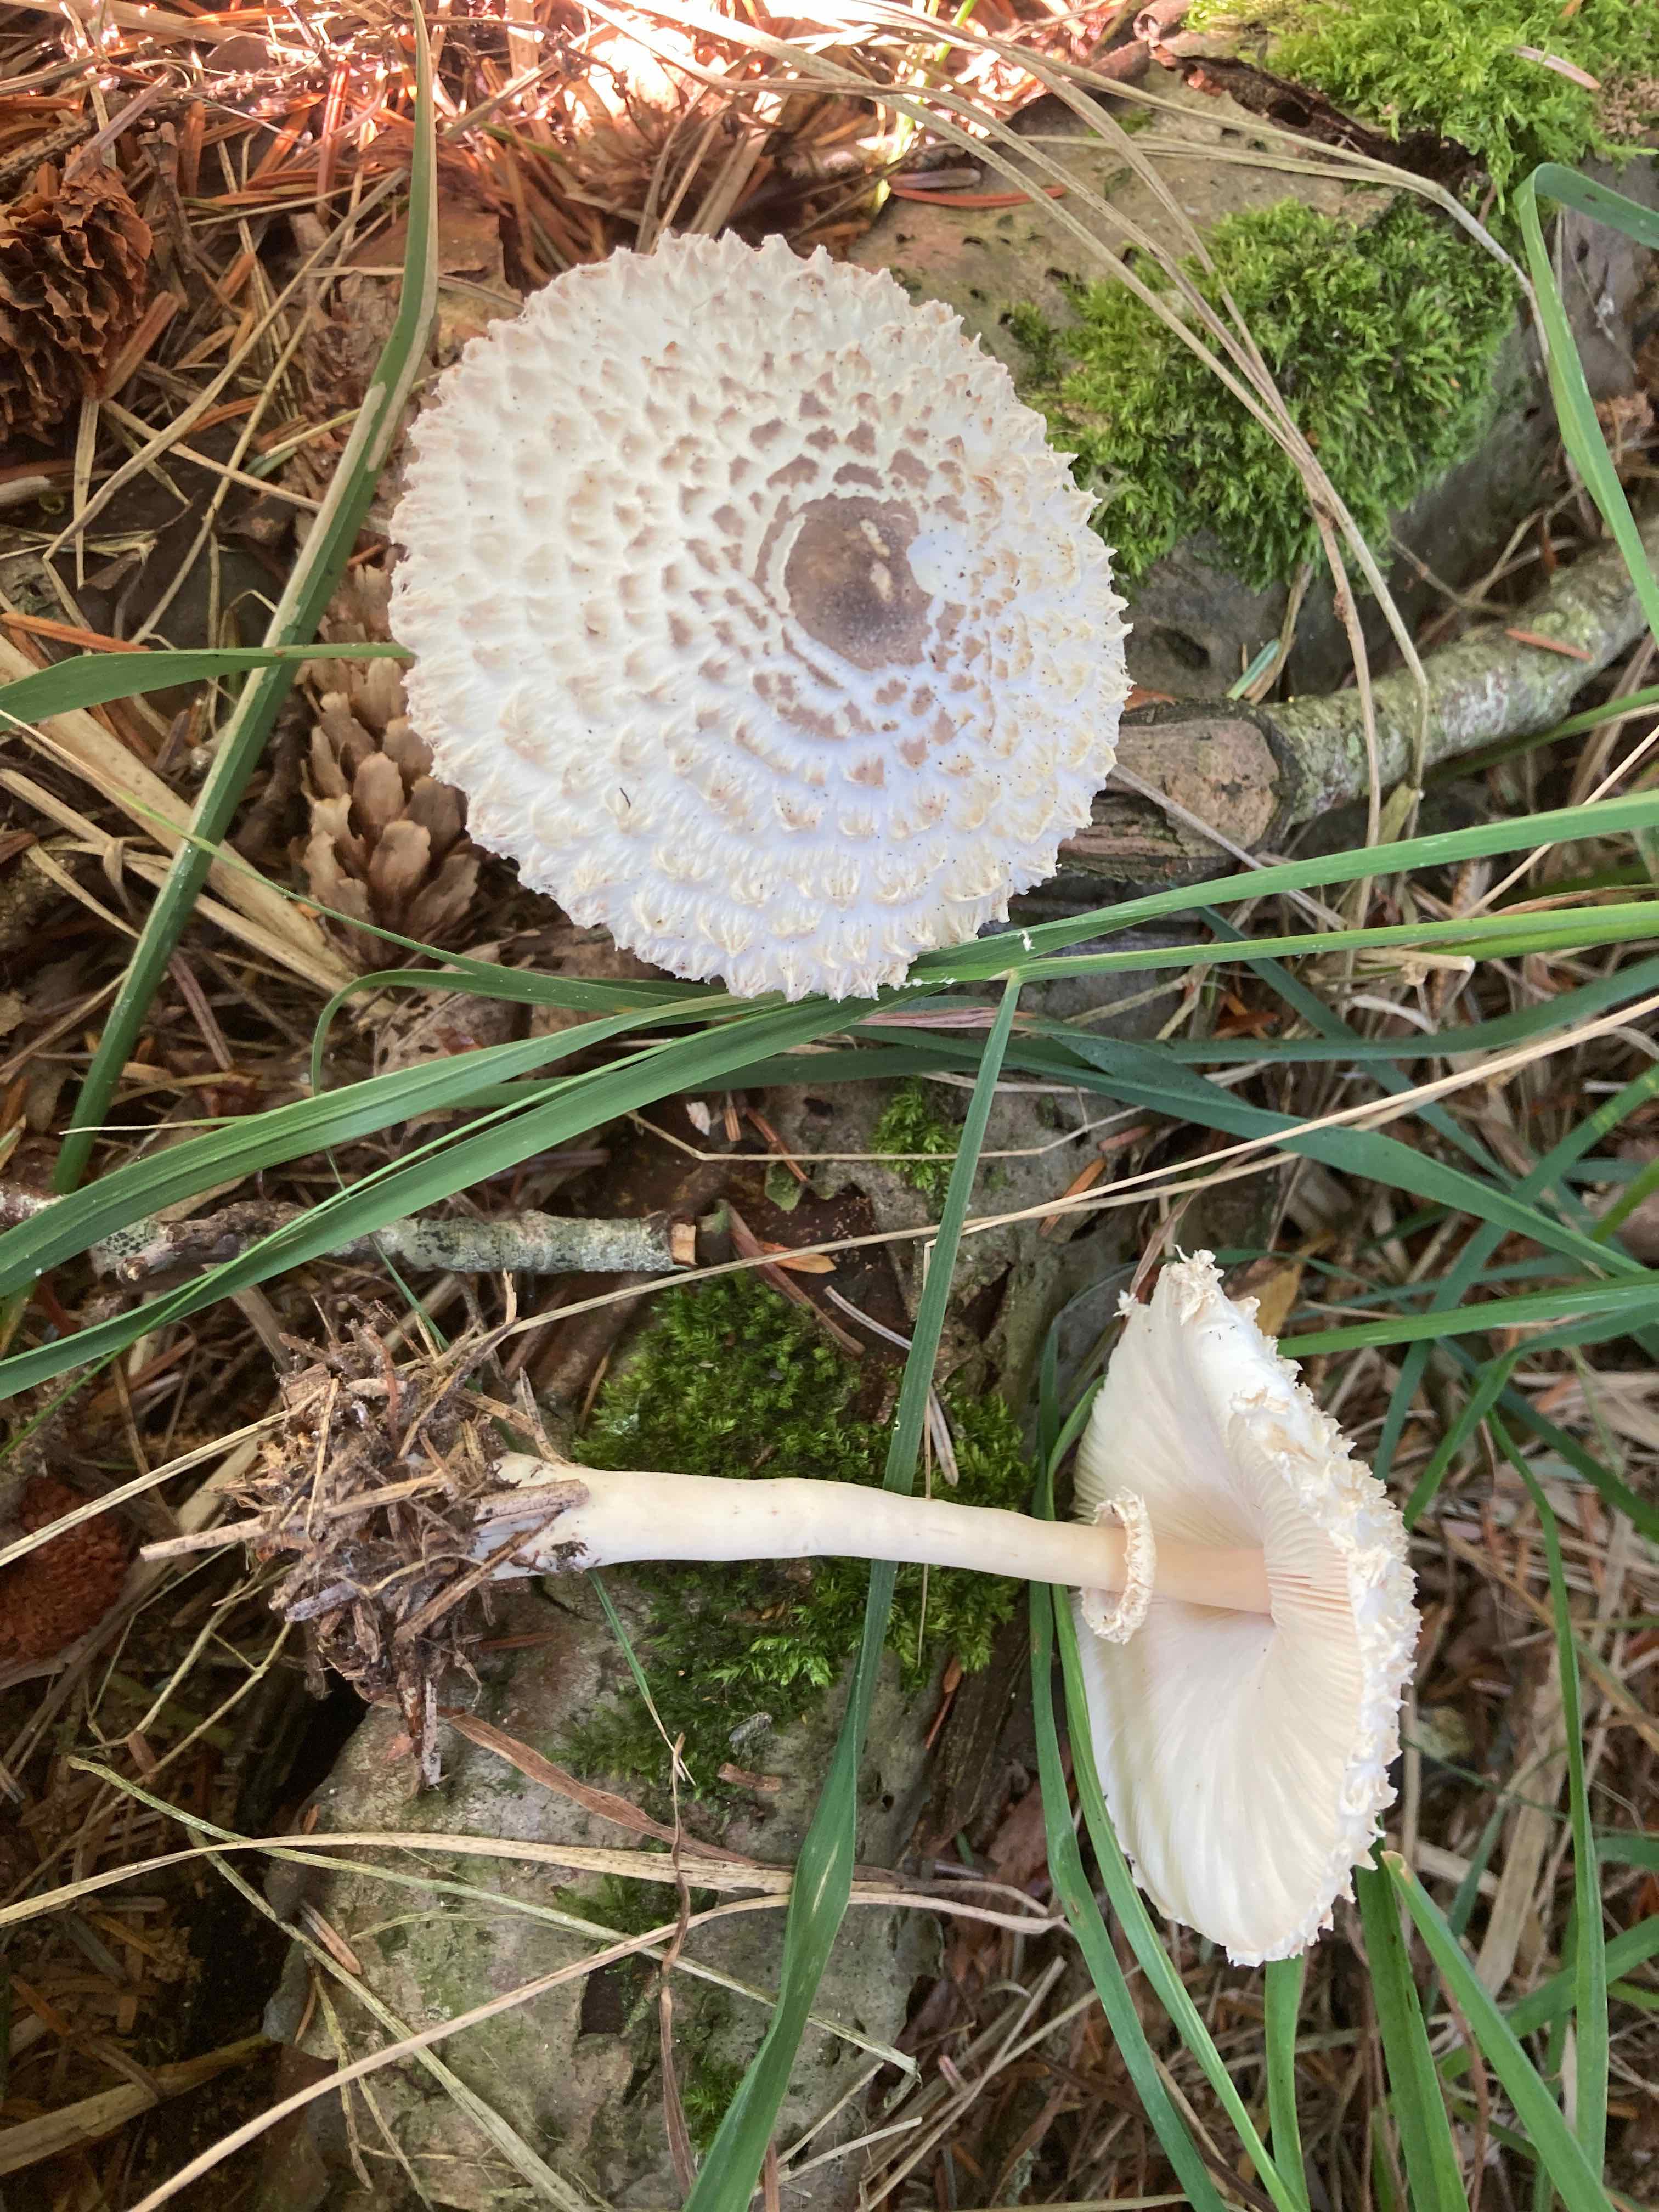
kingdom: Fungi
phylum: Basidiomycota
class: Agaricomycetes
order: Agaricales
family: Agaricaceae
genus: Leucoagaricus
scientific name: Leucoagaricus nympharum
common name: gran-silkehat
